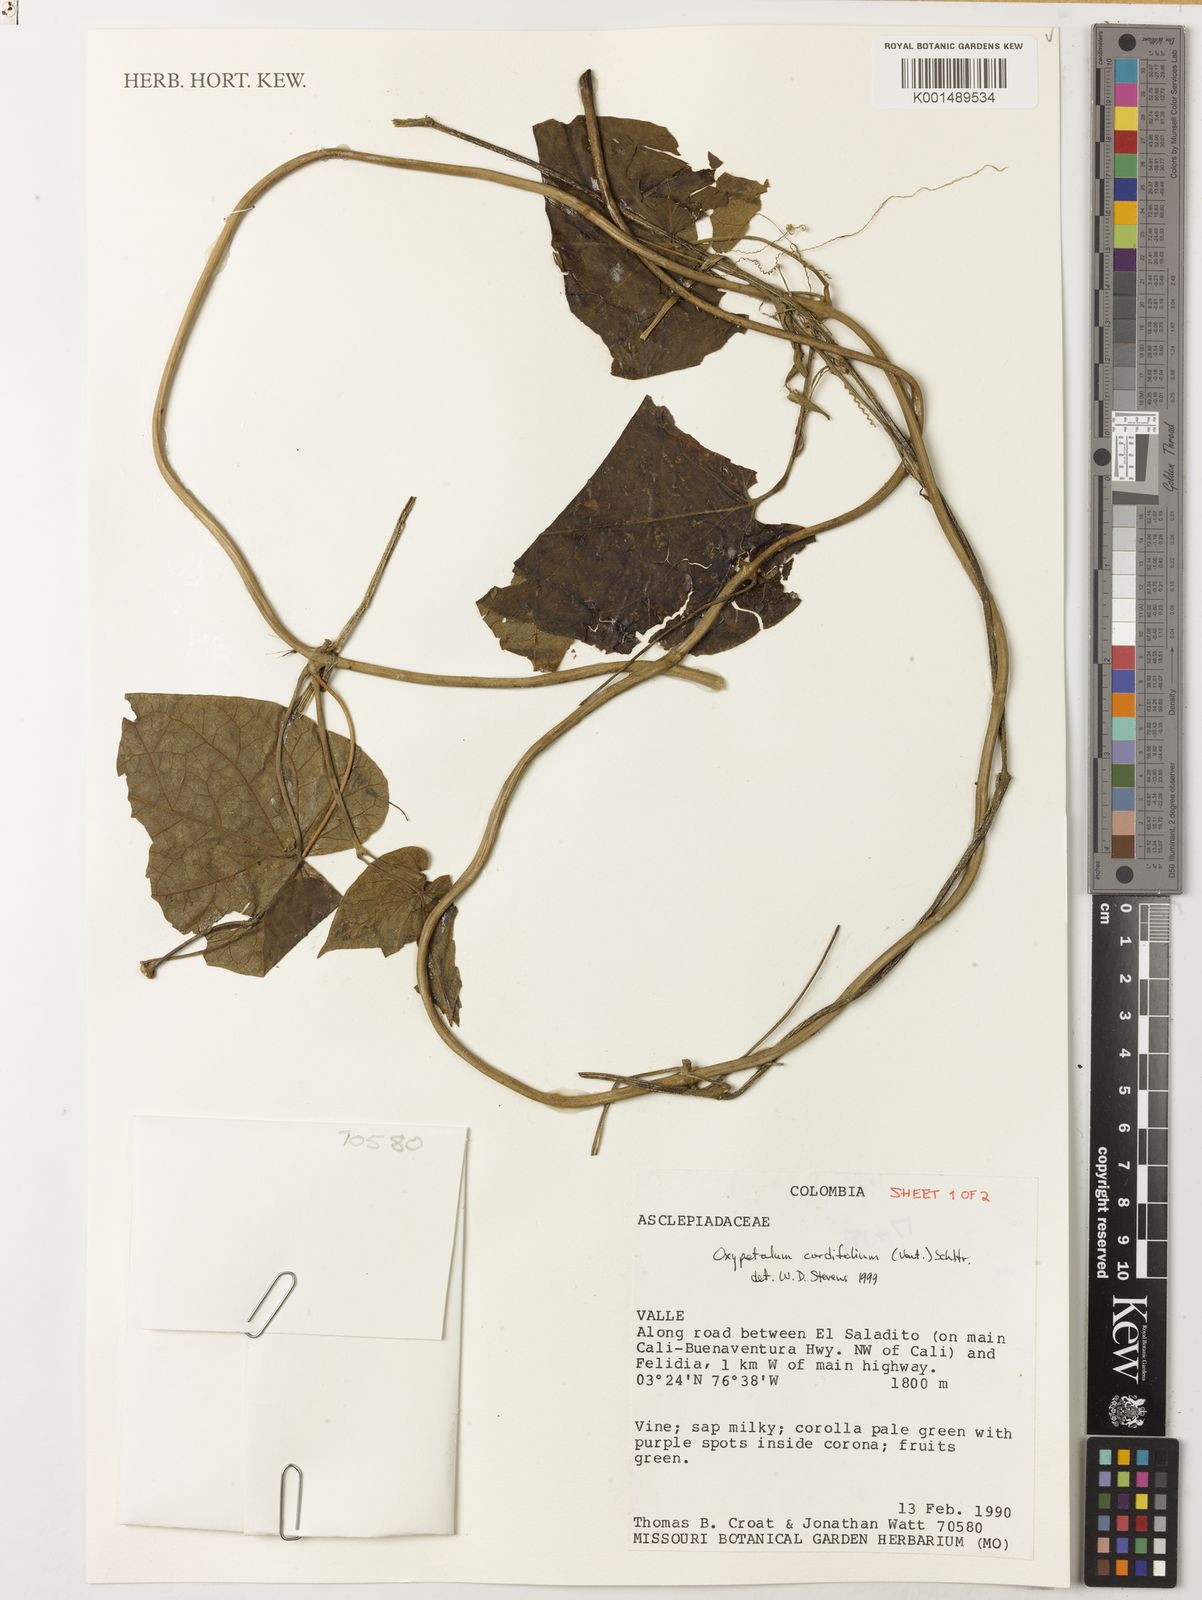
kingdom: Plantae
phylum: Tracheophyta
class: Magnoliopsida
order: Gentianales
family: Apocynaceae
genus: Oxypetalum
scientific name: Oxypetalum cordifolium
